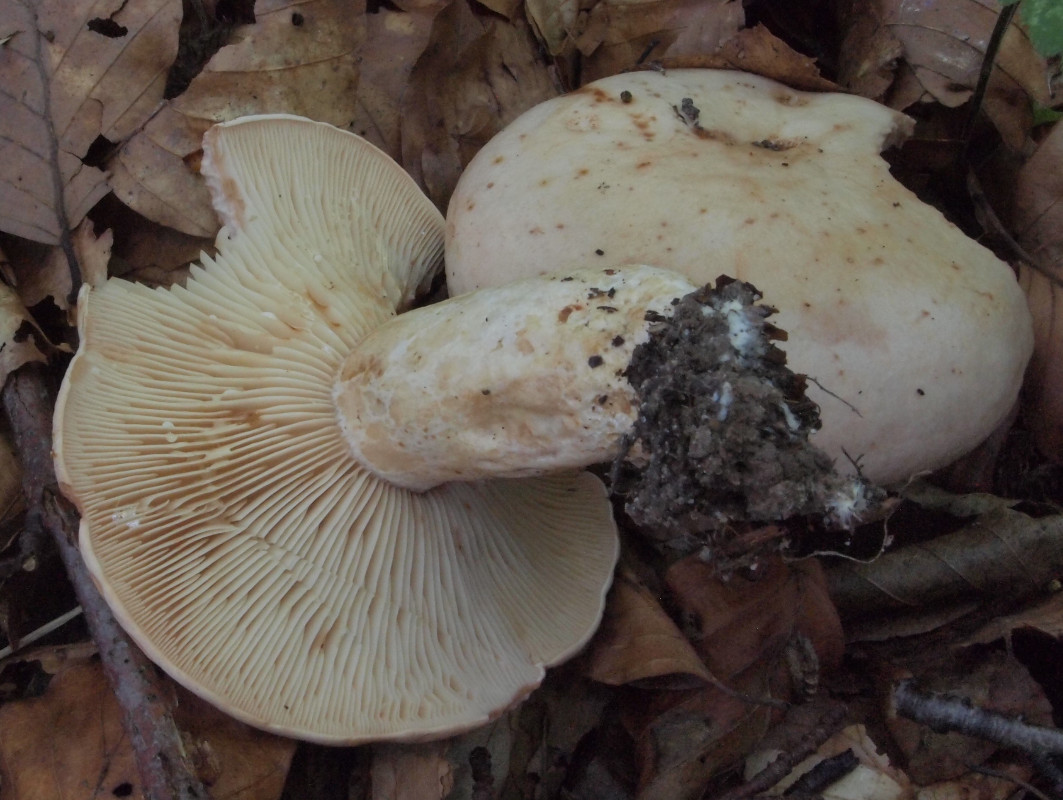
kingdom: Fungi
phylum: Basidiomycota
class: Agaricomycetes
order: Russulales
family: Russulaceae
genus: Lactarius
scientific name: Lactarius pallidus
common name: bleg mælkehat
